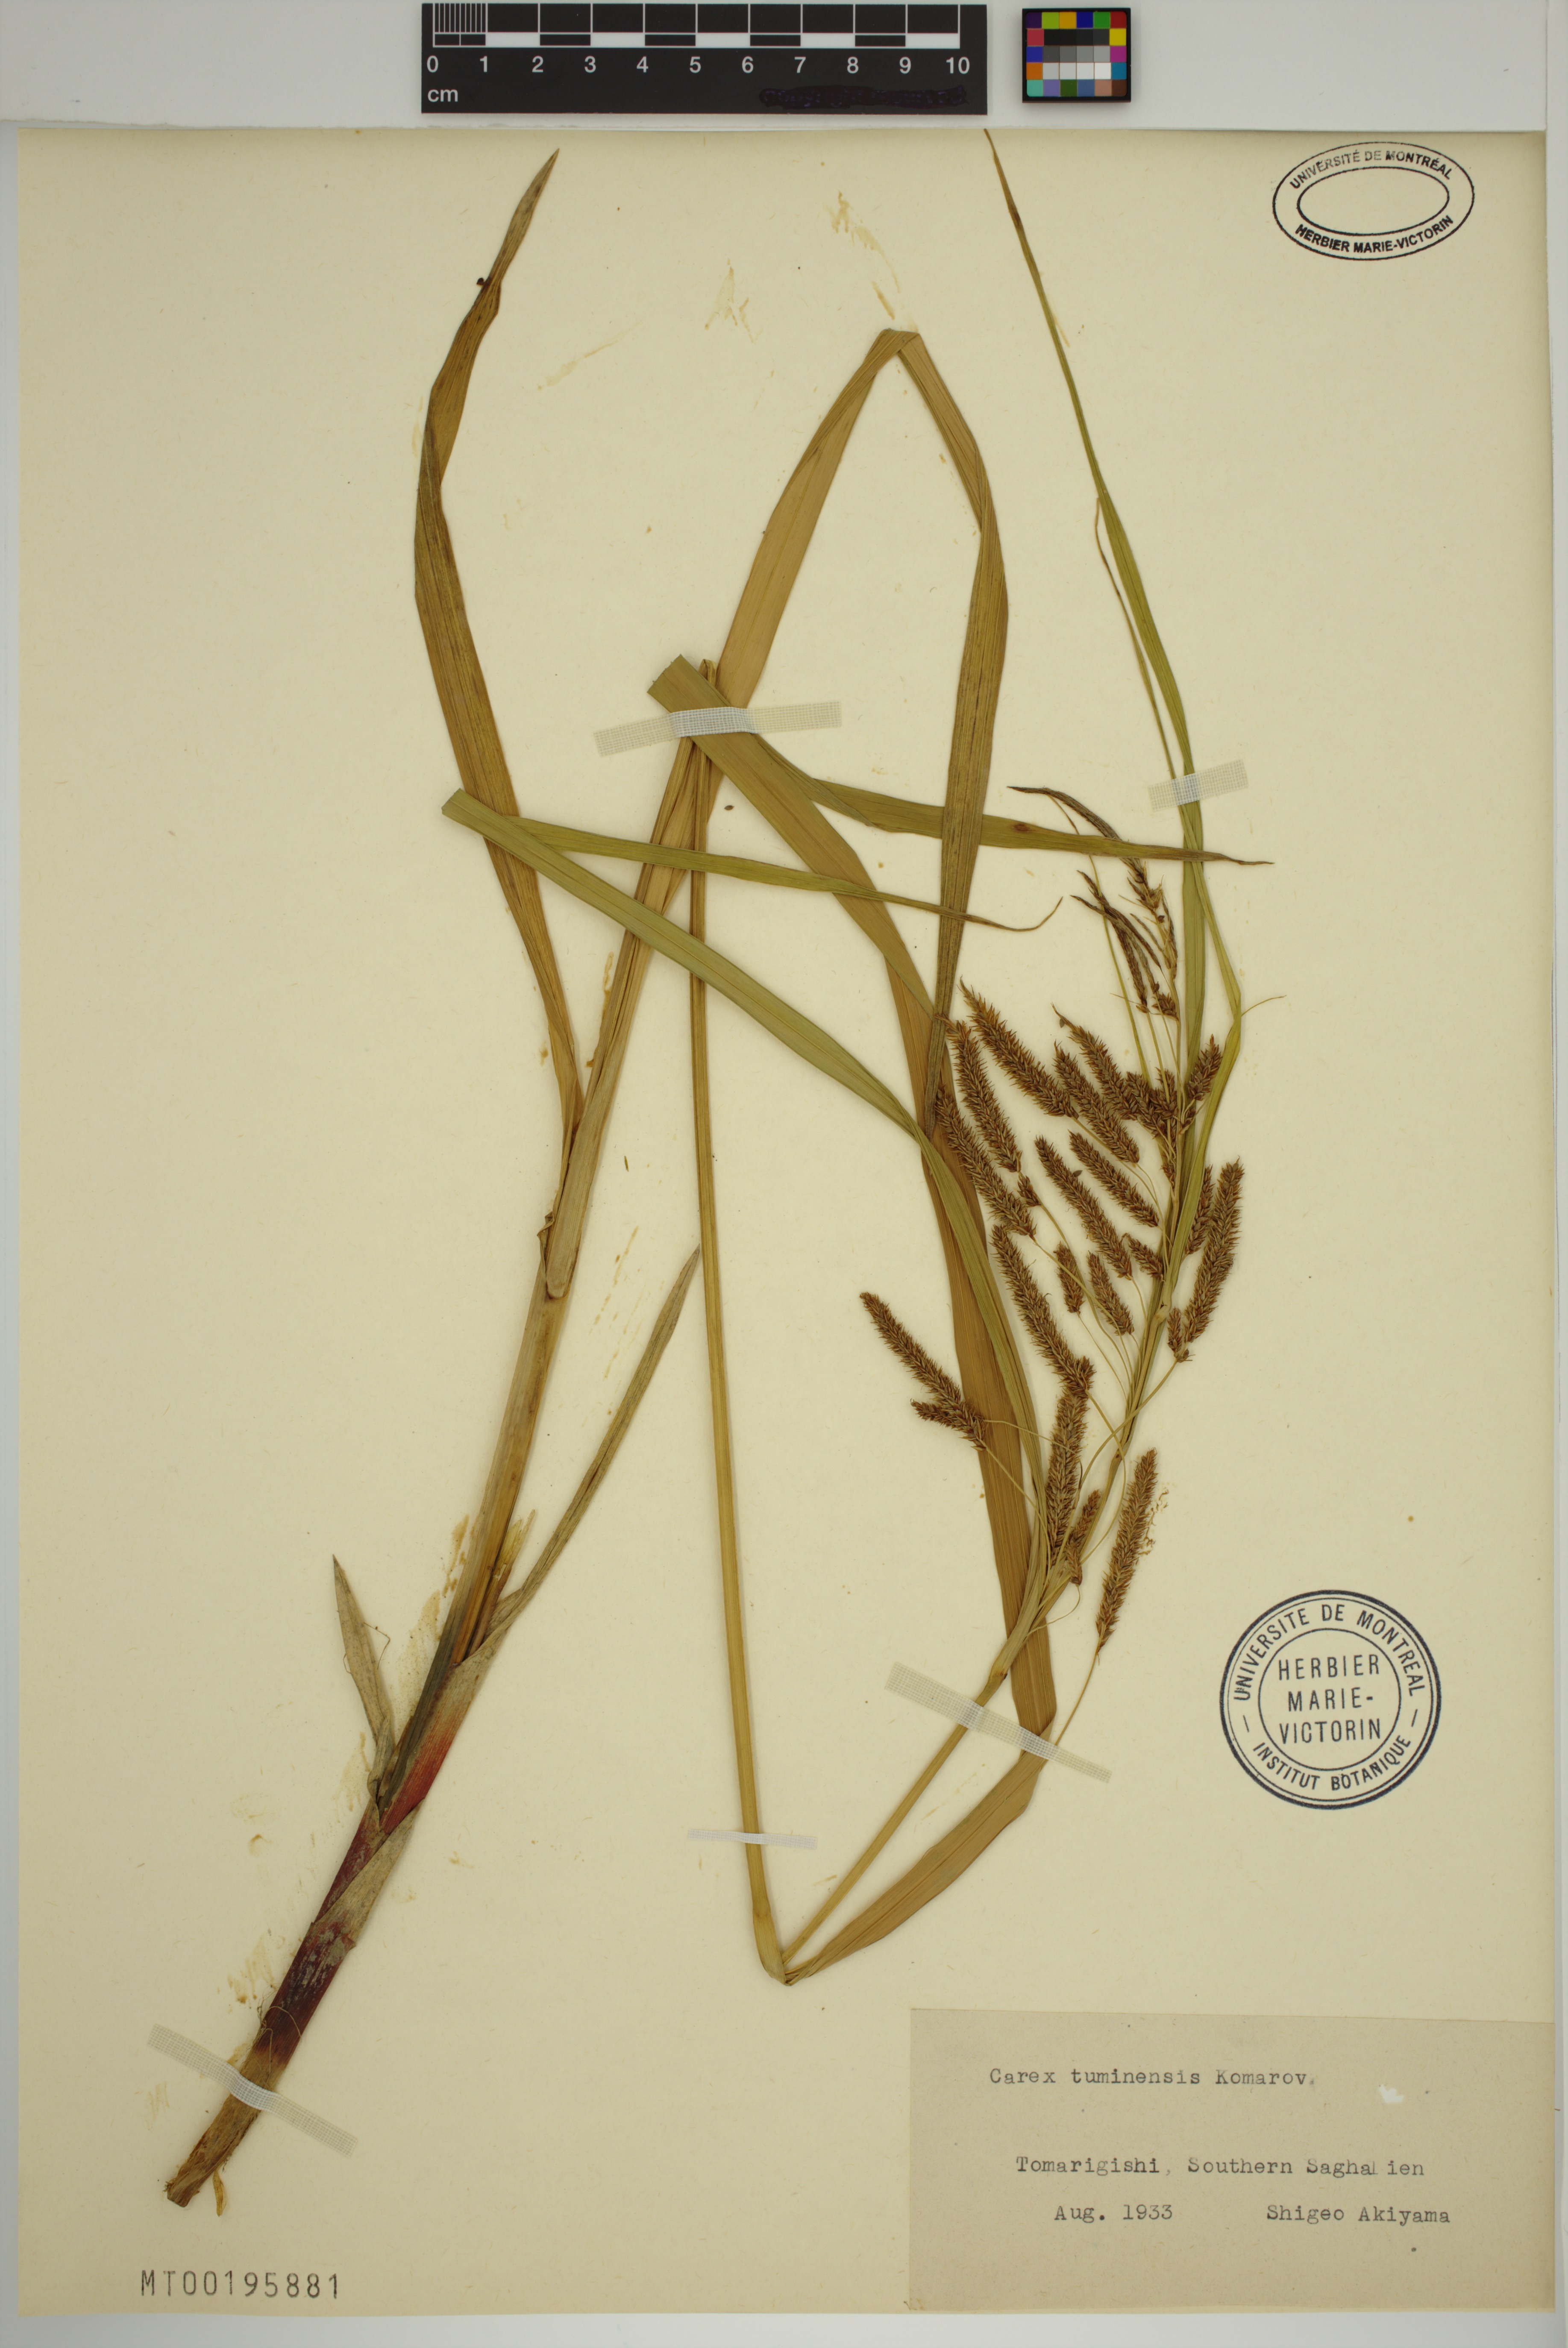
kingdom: Plantae
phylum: Tracheophyta
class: Liliopsida
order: Poales
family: Cyperaceae
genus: Carex
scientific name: Carex tuminensis
